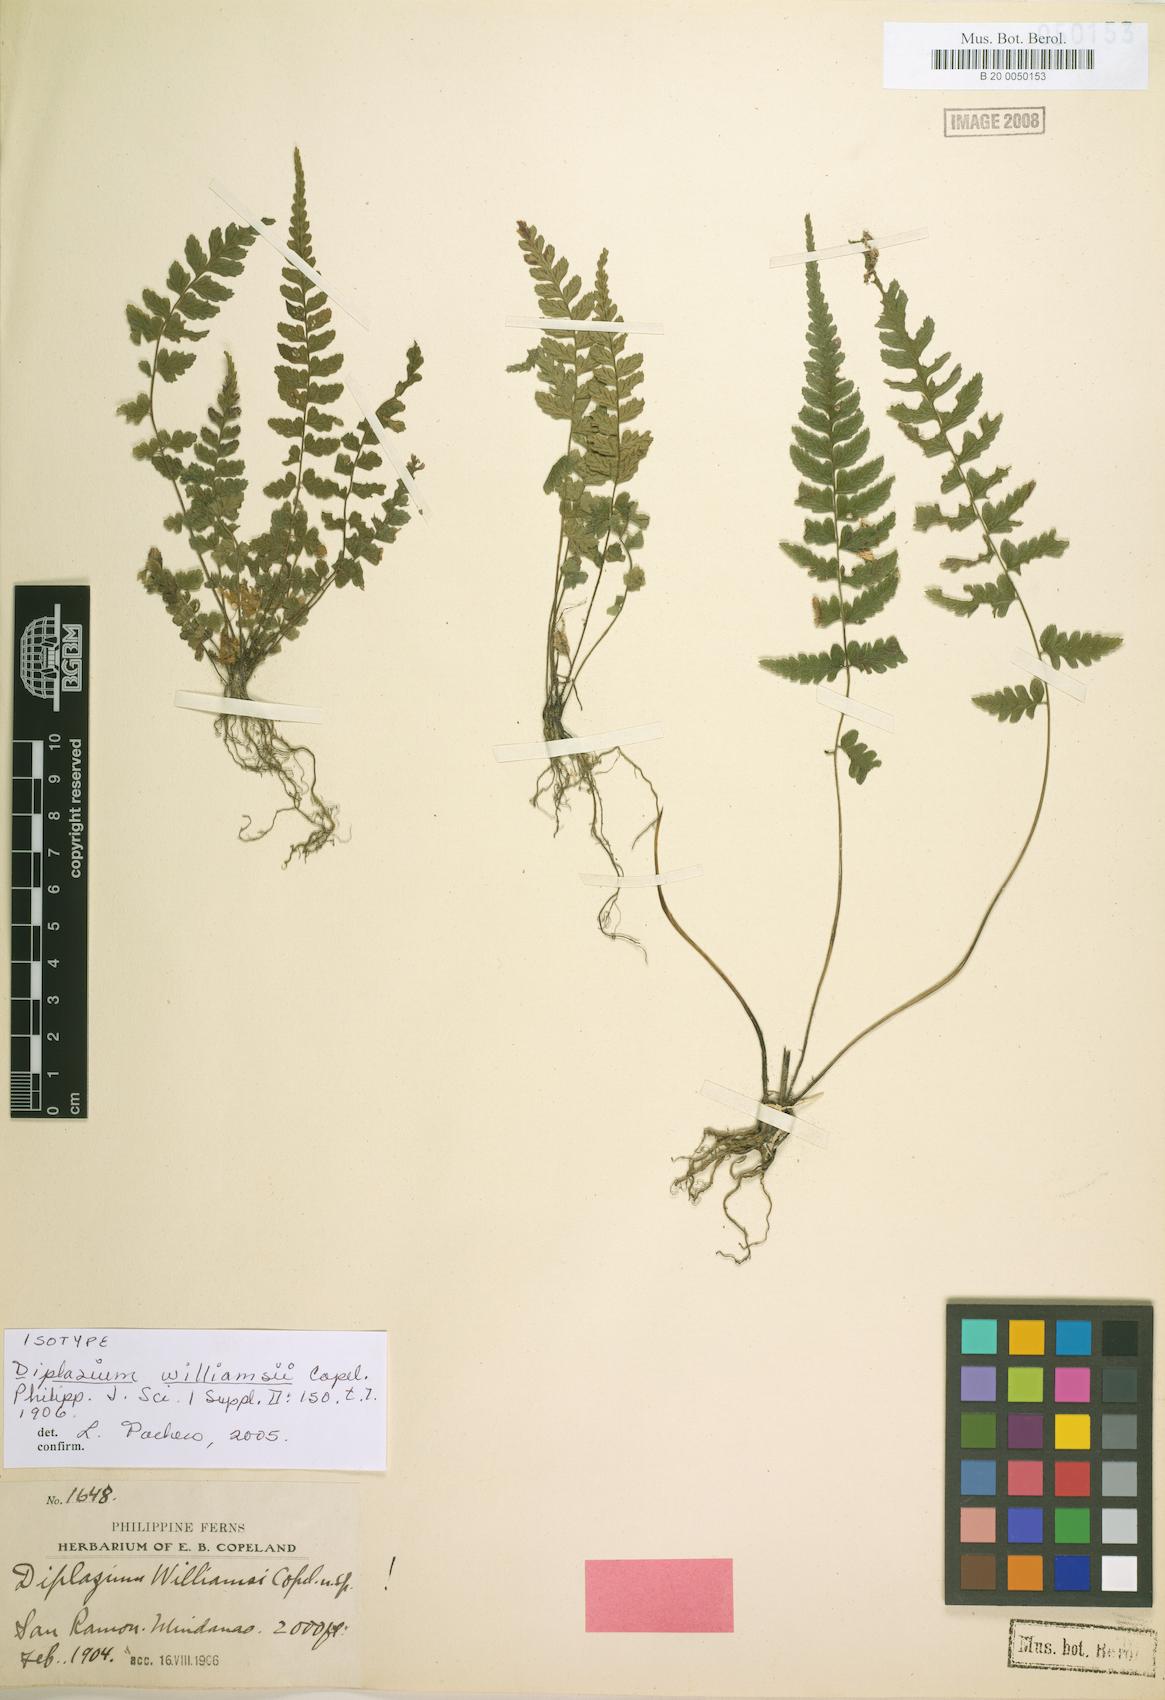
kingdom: Plantae
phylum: Tracheophyta
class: Polypodiopsida
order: Polypodiales
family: Athyriaceae
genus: Diplazium
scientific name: Diplazium williamsii
